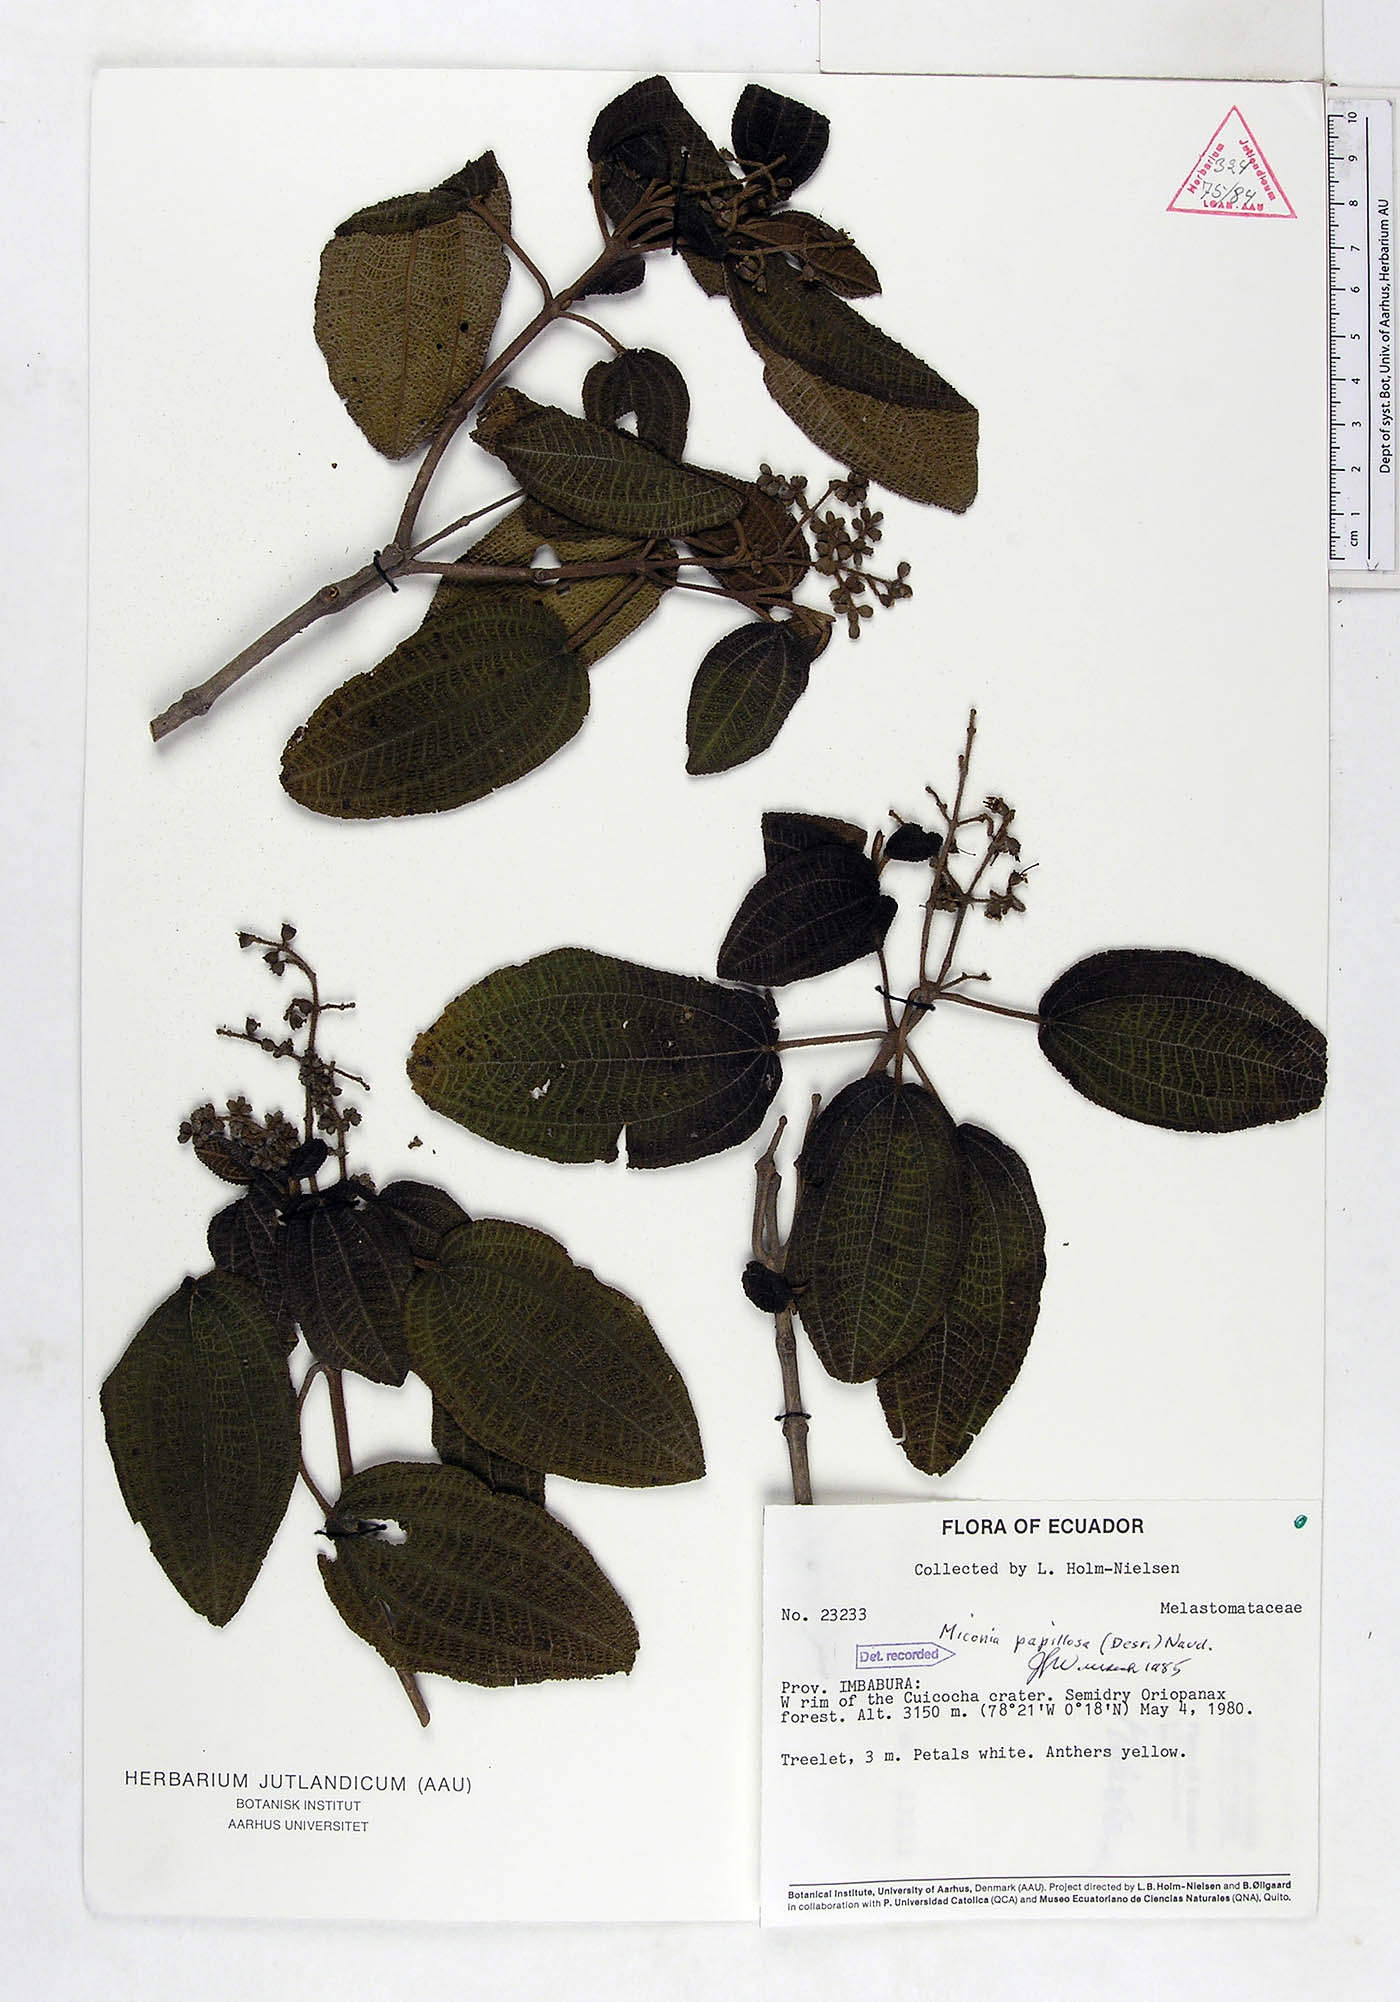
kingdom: Plantae
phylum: Tracheophyta
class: Magnoliopsida
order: Myrtales
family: Melastomataceae
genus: Miconia
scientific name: Miconia papillosa
